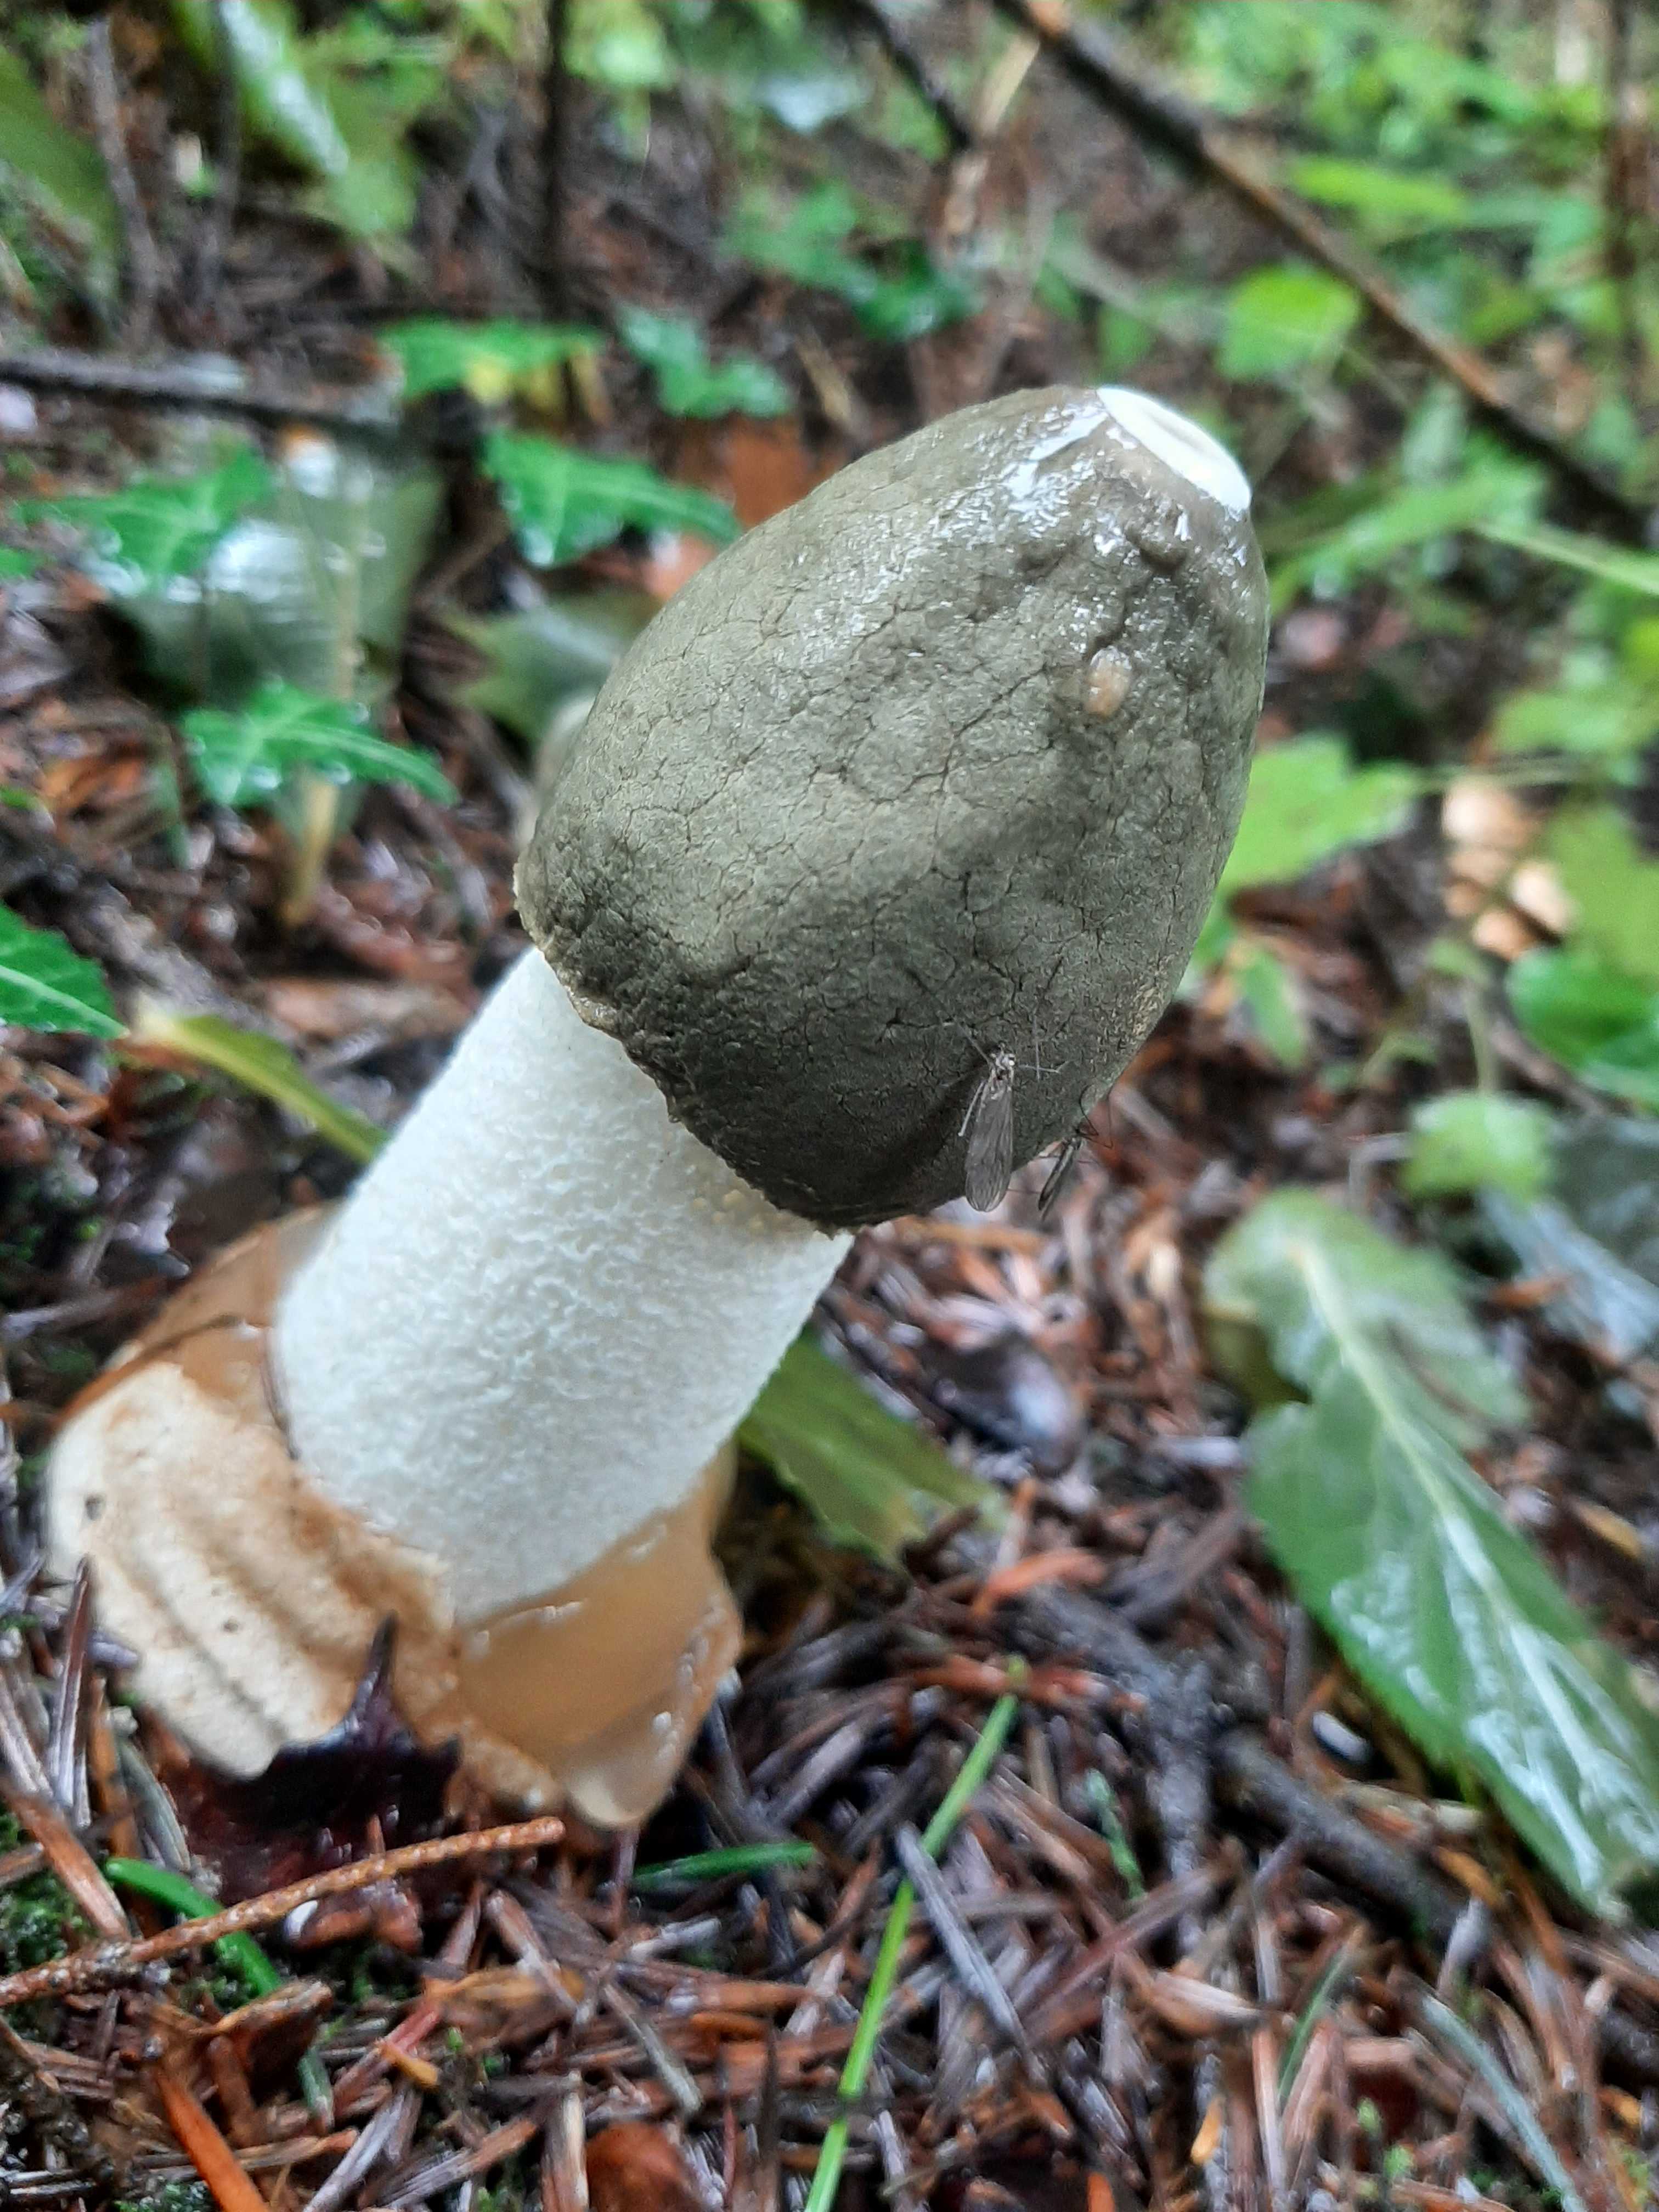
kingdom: Fungi
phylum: Basidiomycota
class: Agaricomycetes
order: Phallales
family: Phallaceae
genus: Phallus
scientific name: Phallus impudicus
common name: almindelig stinksvamp
